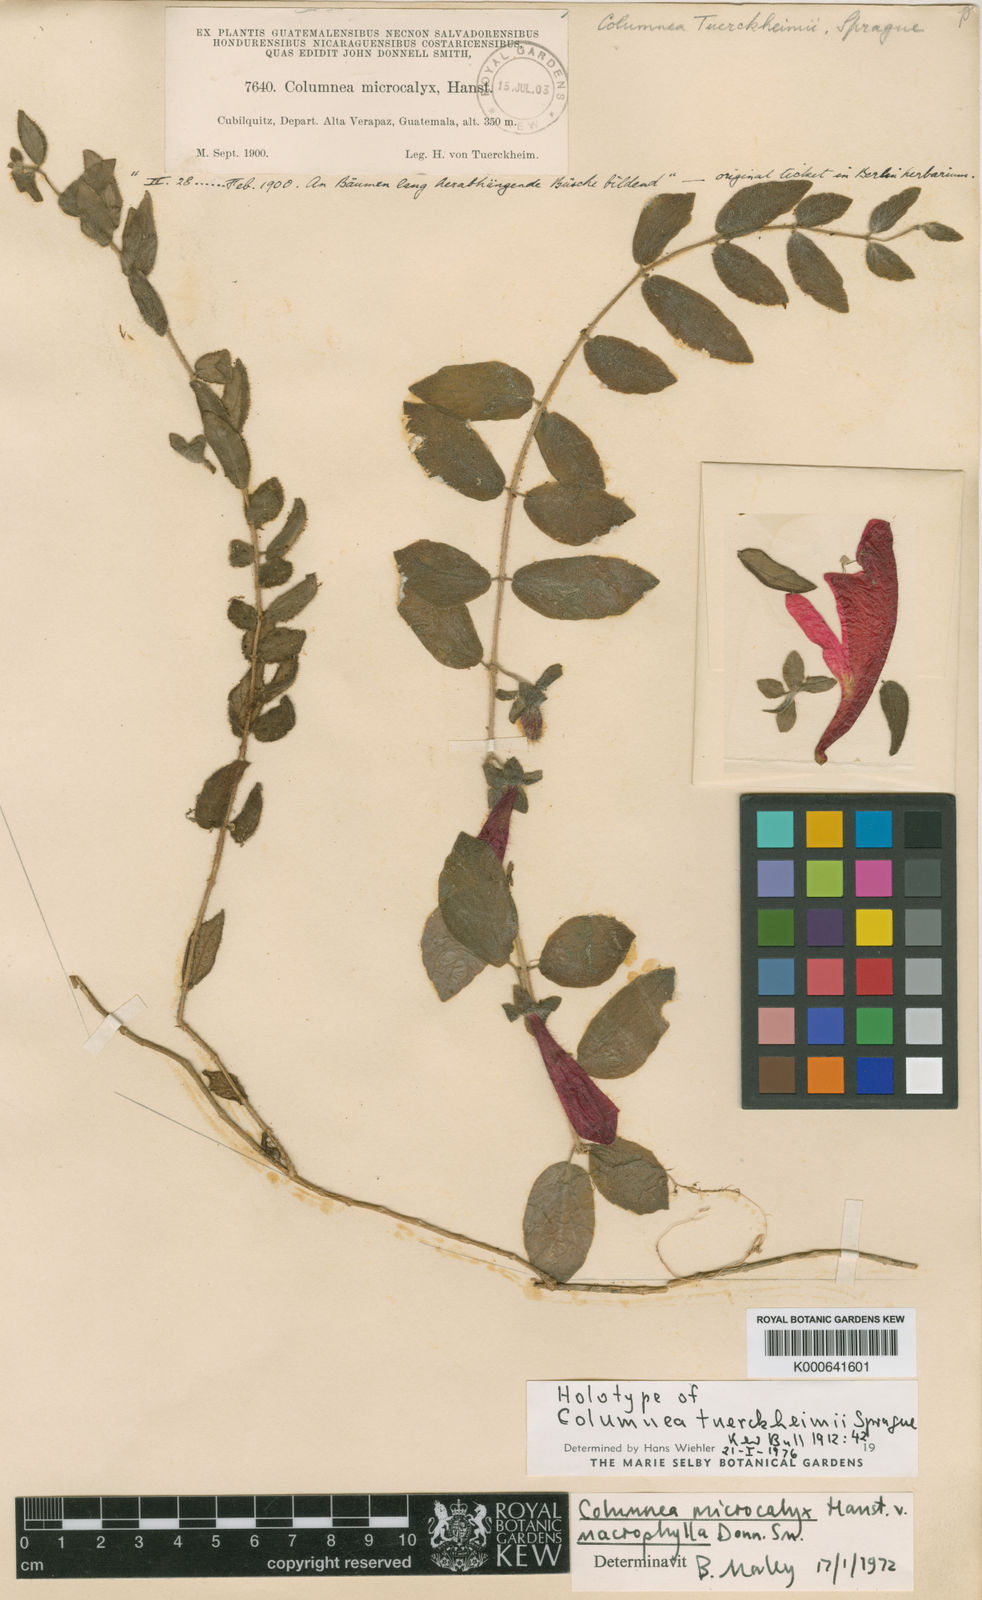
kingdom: Plantae
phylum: Tracheophyta
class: Magnoliopsida
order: Lamiales
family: Gesneriaceae
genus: Columnea
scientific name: Columnea microcalyx
